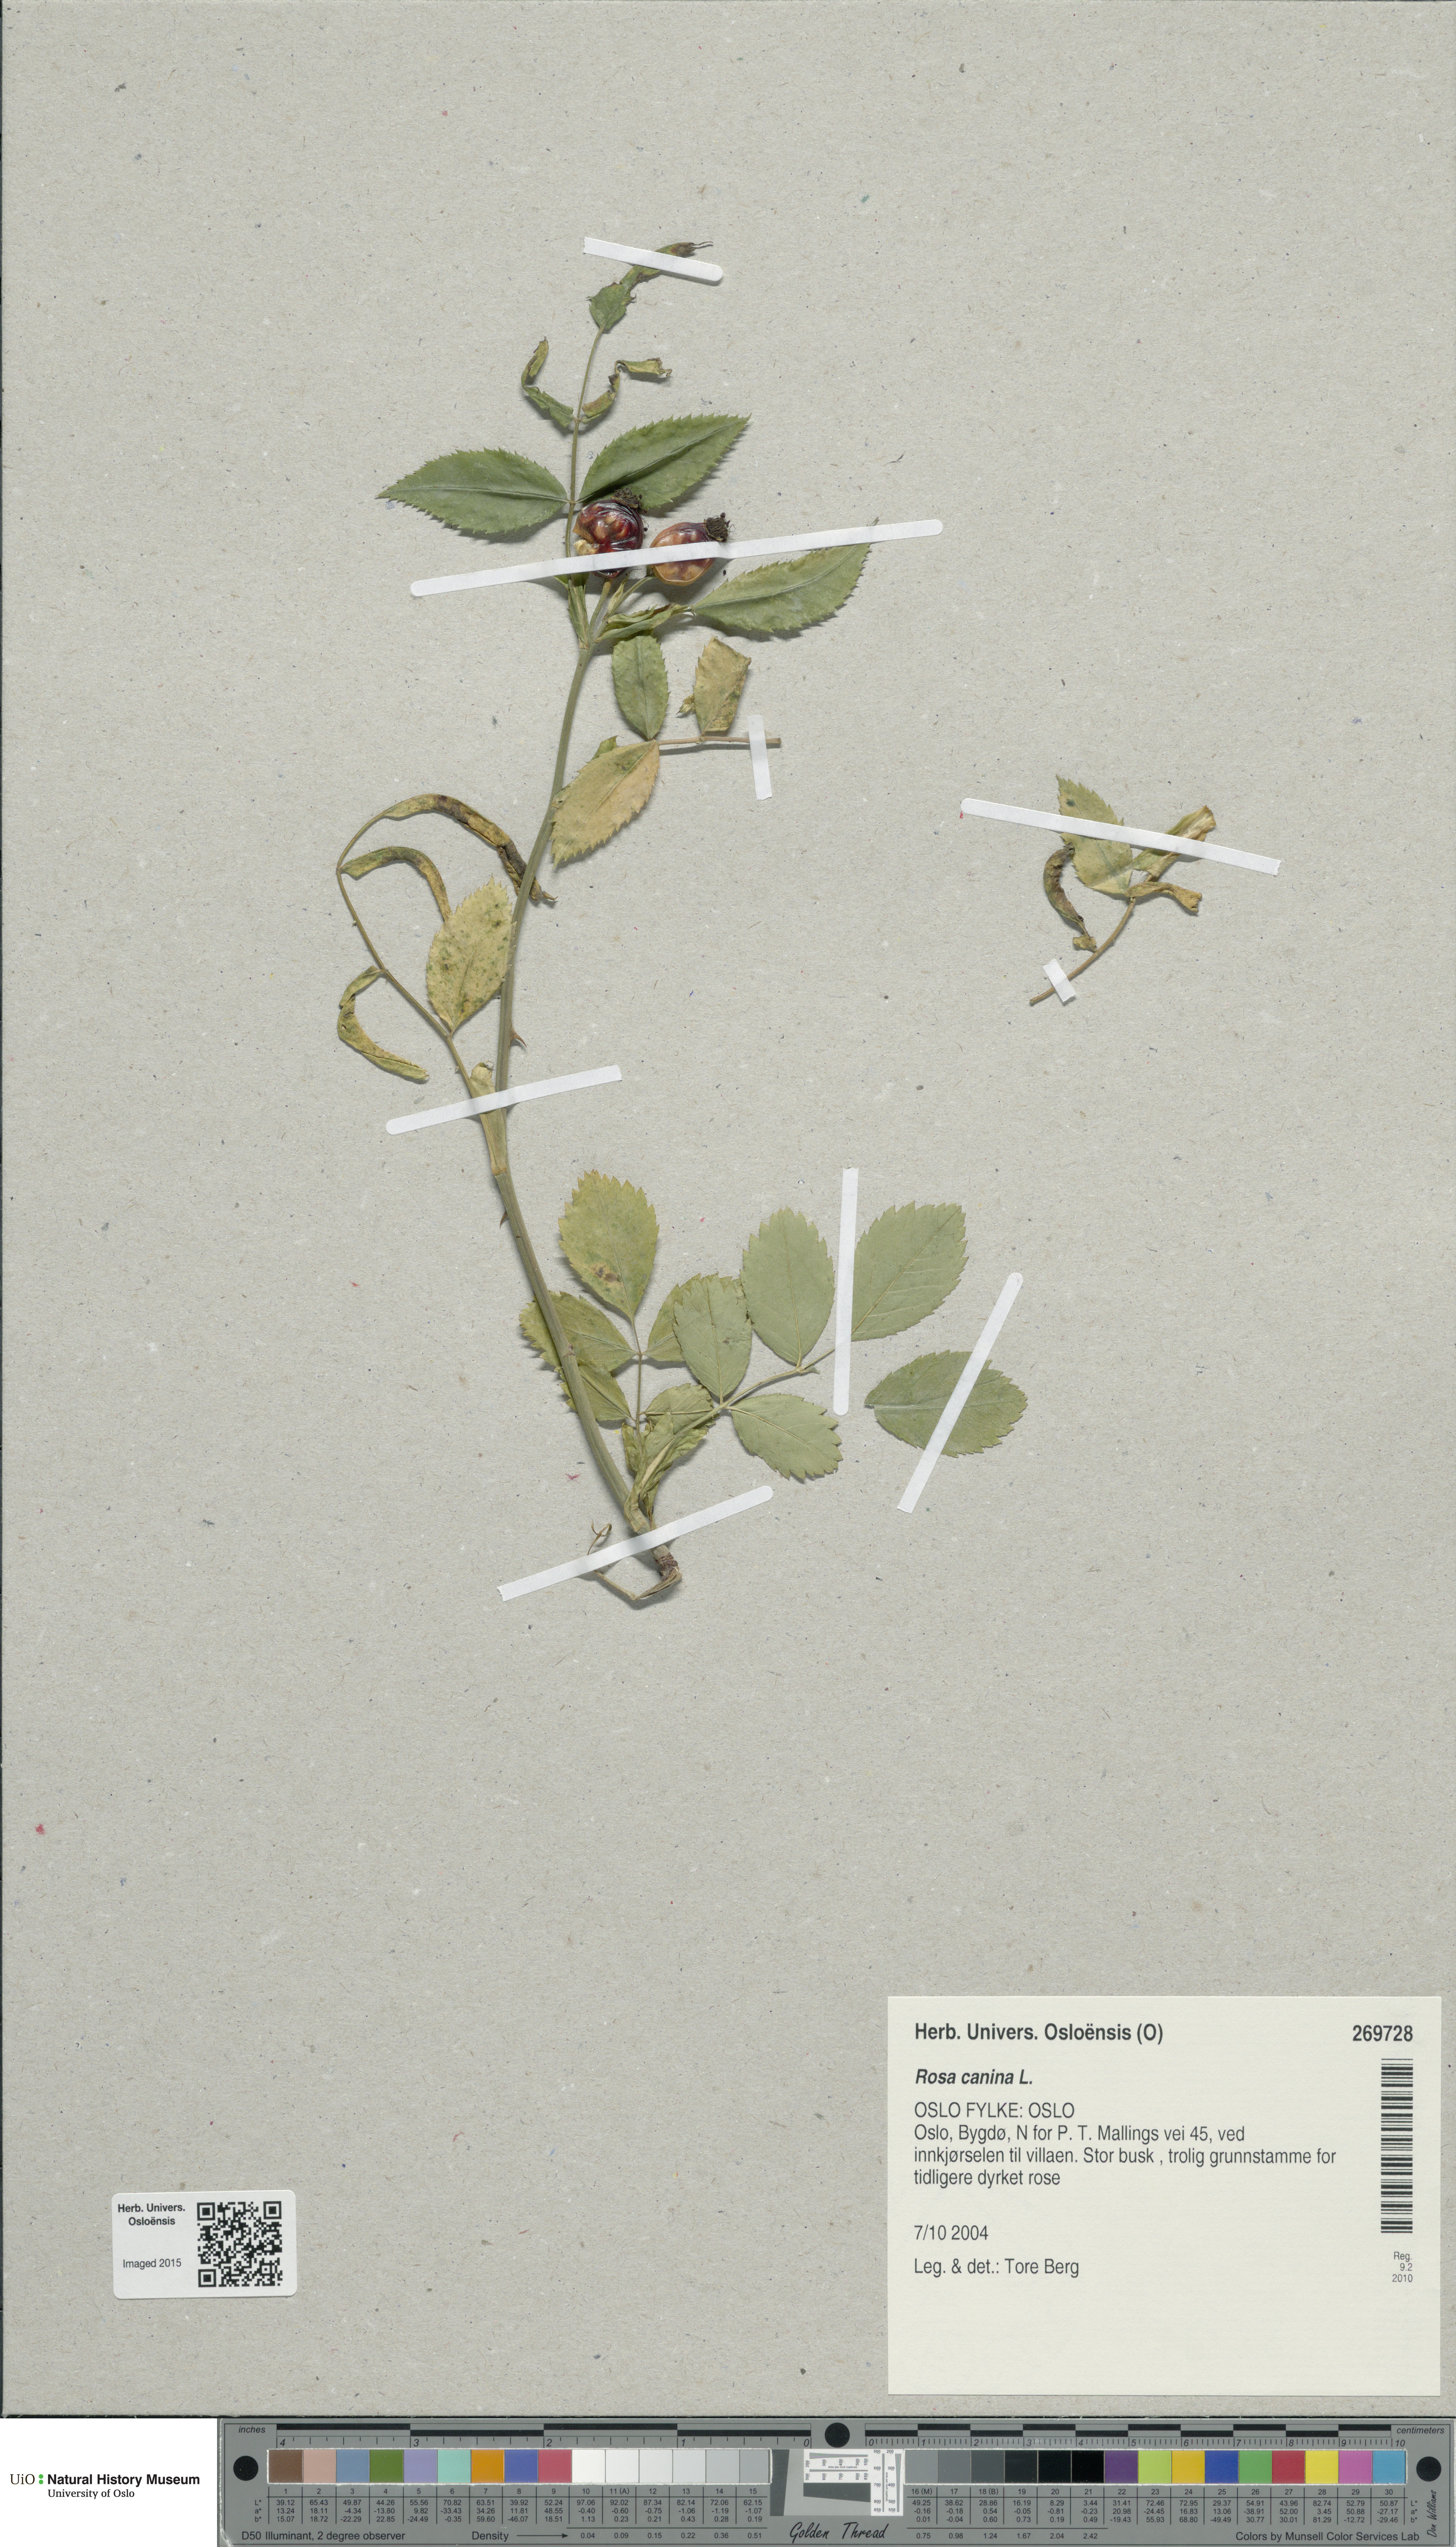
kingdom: Plantae
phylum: Tracheophyta
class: Magnoliopsida
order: Rosales
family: Rosaceae
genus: Rosa
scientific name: Rosa canina
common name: Dog rose
